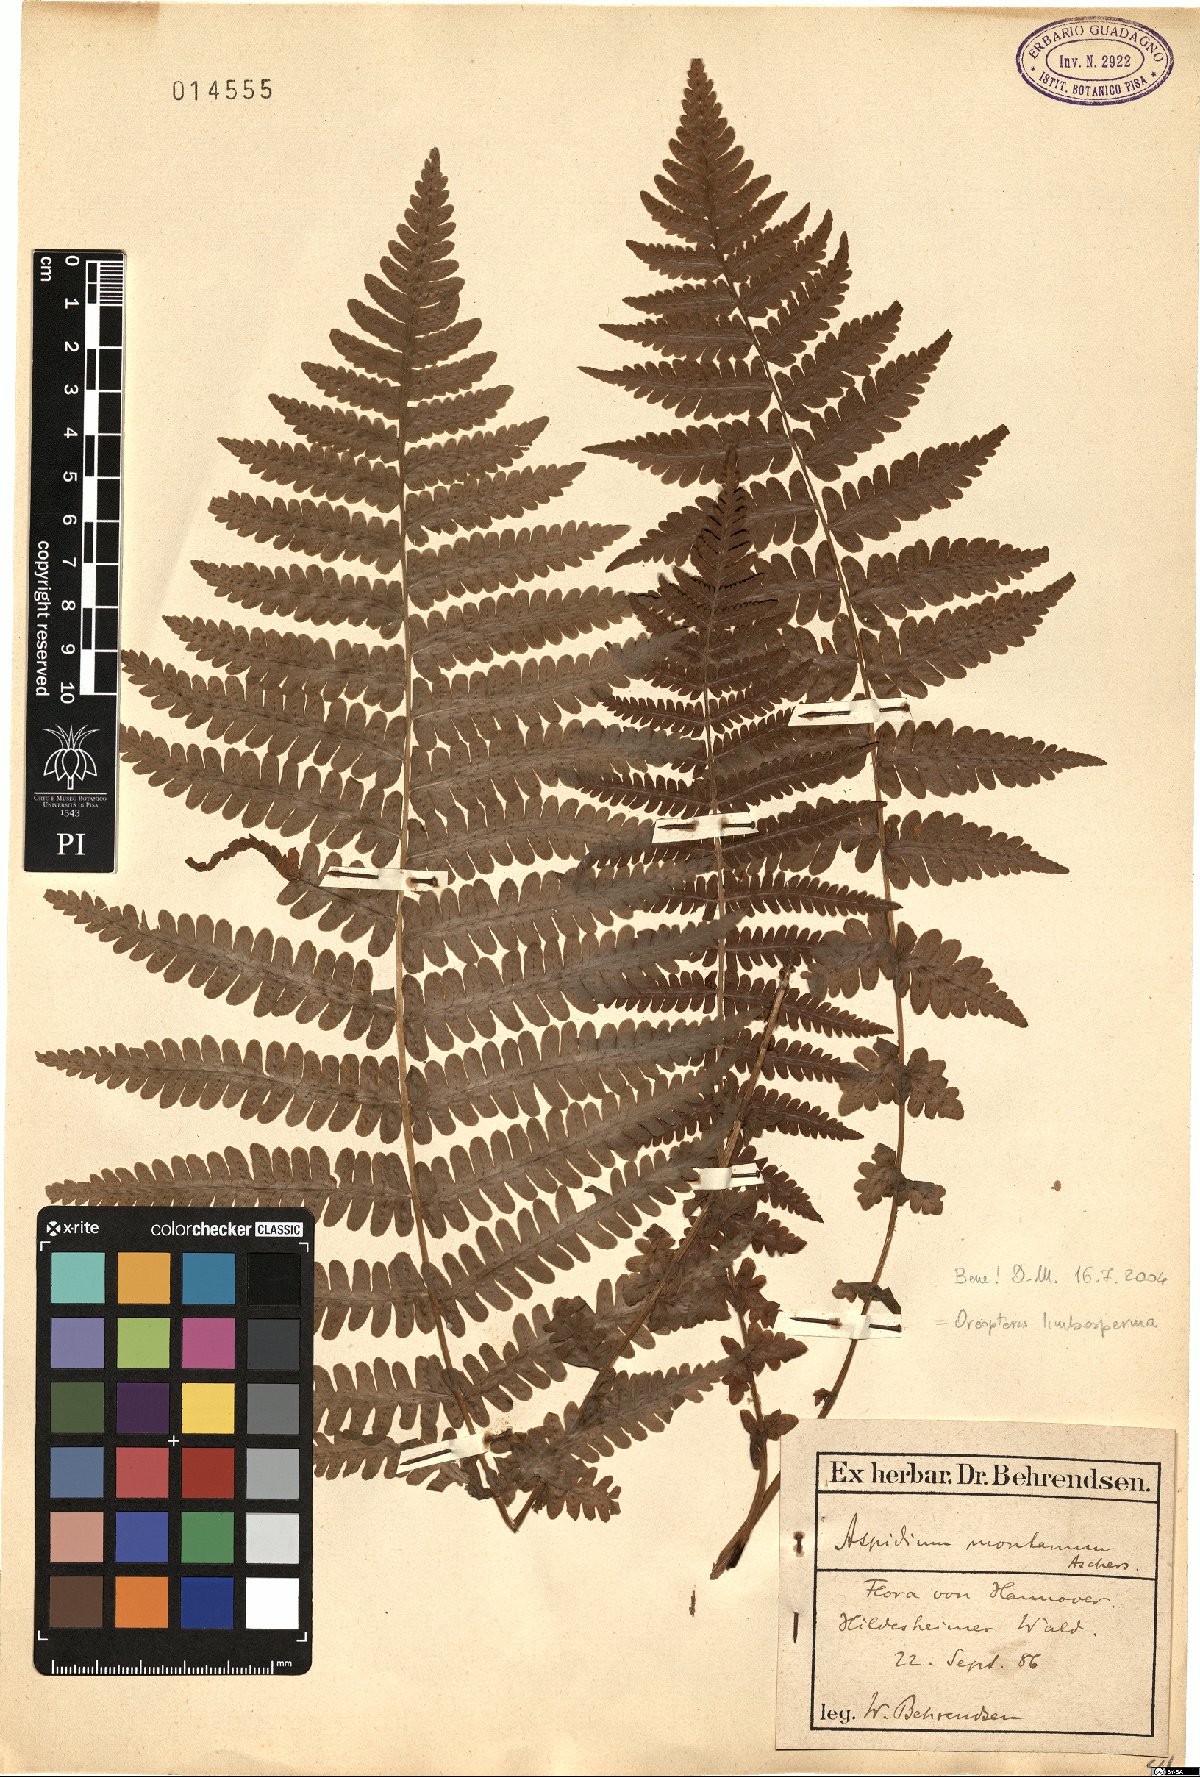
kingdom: Plantae
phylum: Tracheophyta
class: Polypodiopsida
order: Polypodiales
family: Thelypteridaceae
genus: Oreopteris
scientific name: Oreopteris limbosperma
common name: Lemon-scented fern
